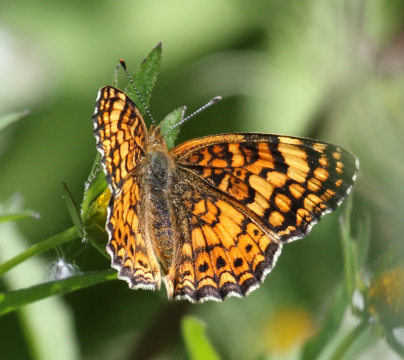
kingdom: Animalia
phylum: Arthropoda
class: Insecta
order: Lepidoptera
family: Nymphalidae
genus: Eresia
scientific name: Eresia aveyrona
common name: Mylitta Crescent
